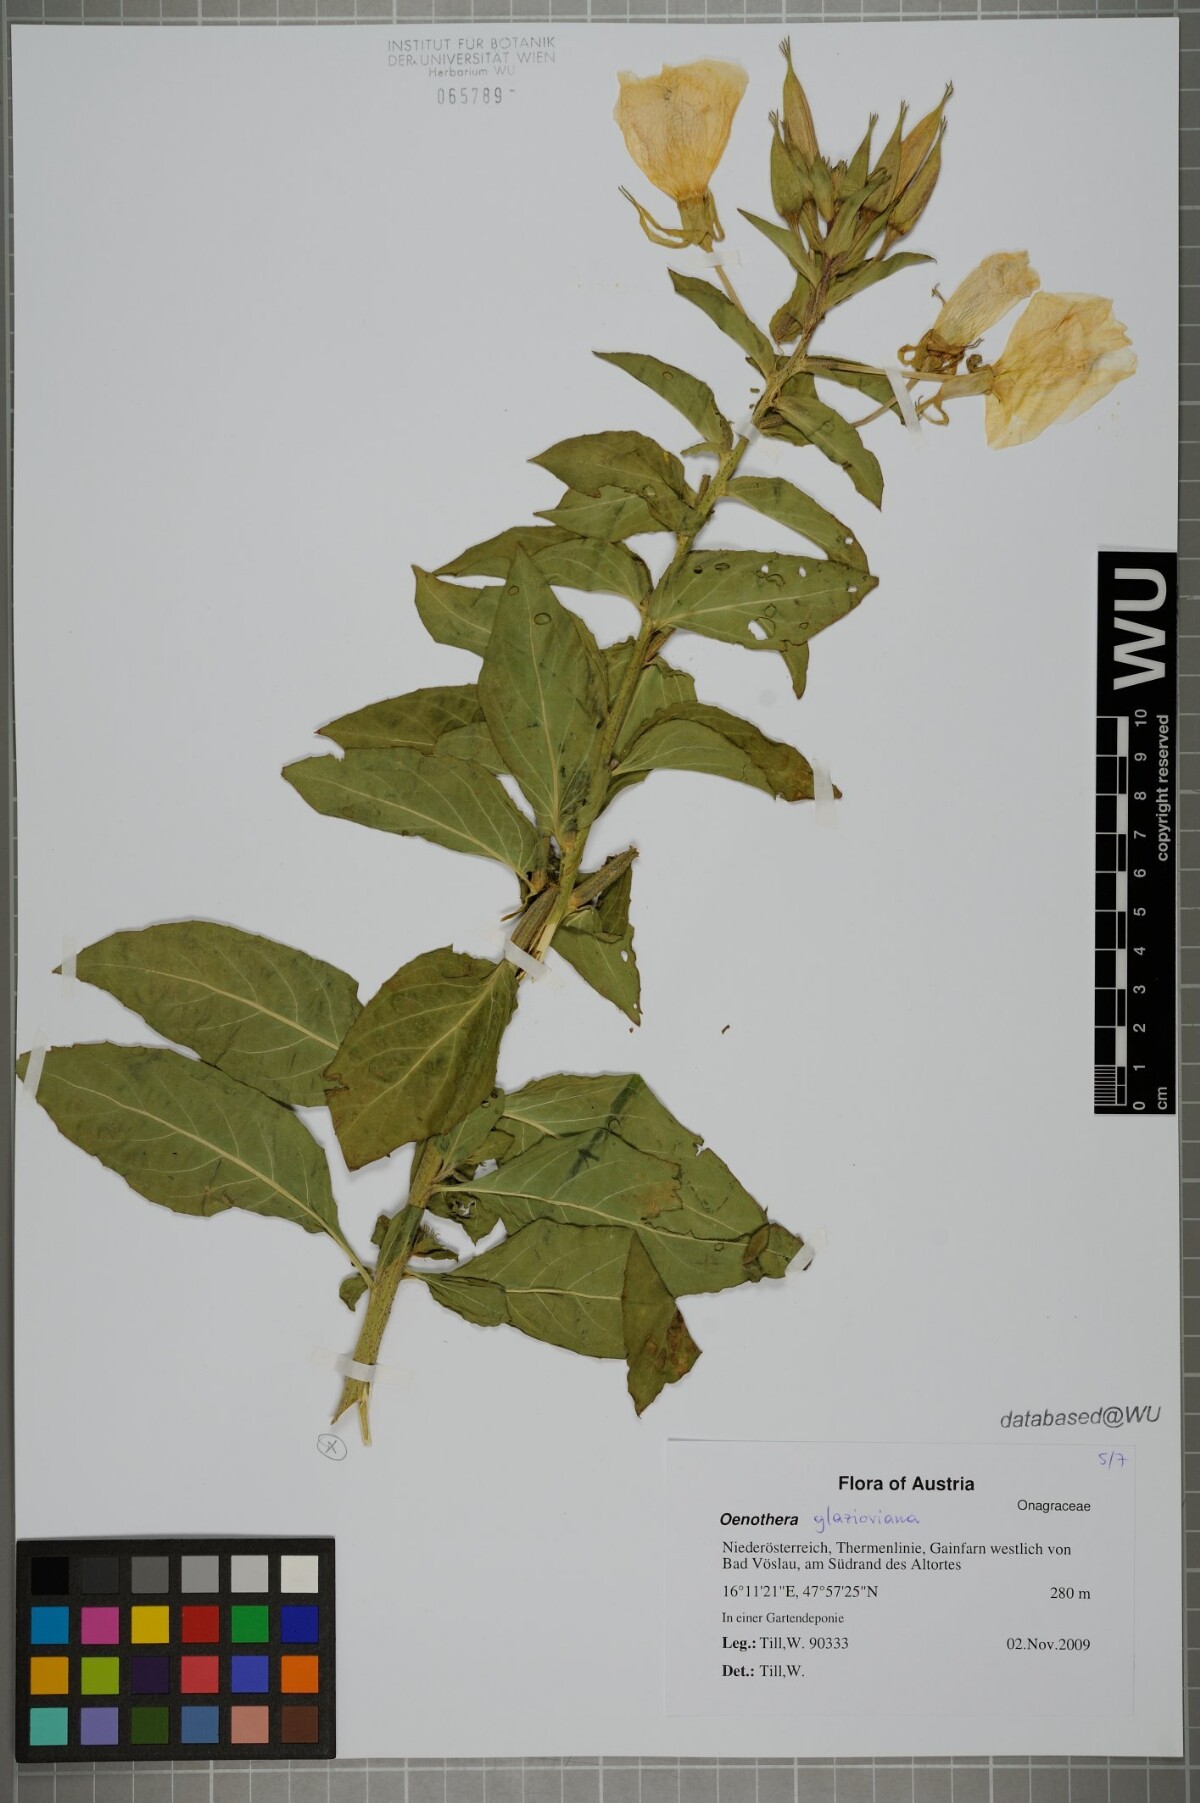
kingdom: Plantae
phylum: Tracheophyta
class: Magnoliopsida
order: Myrtales
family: Onagraceae
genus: Oenothera
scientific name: Oenothera glazioviana
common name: Large-flowered evening-primrose
